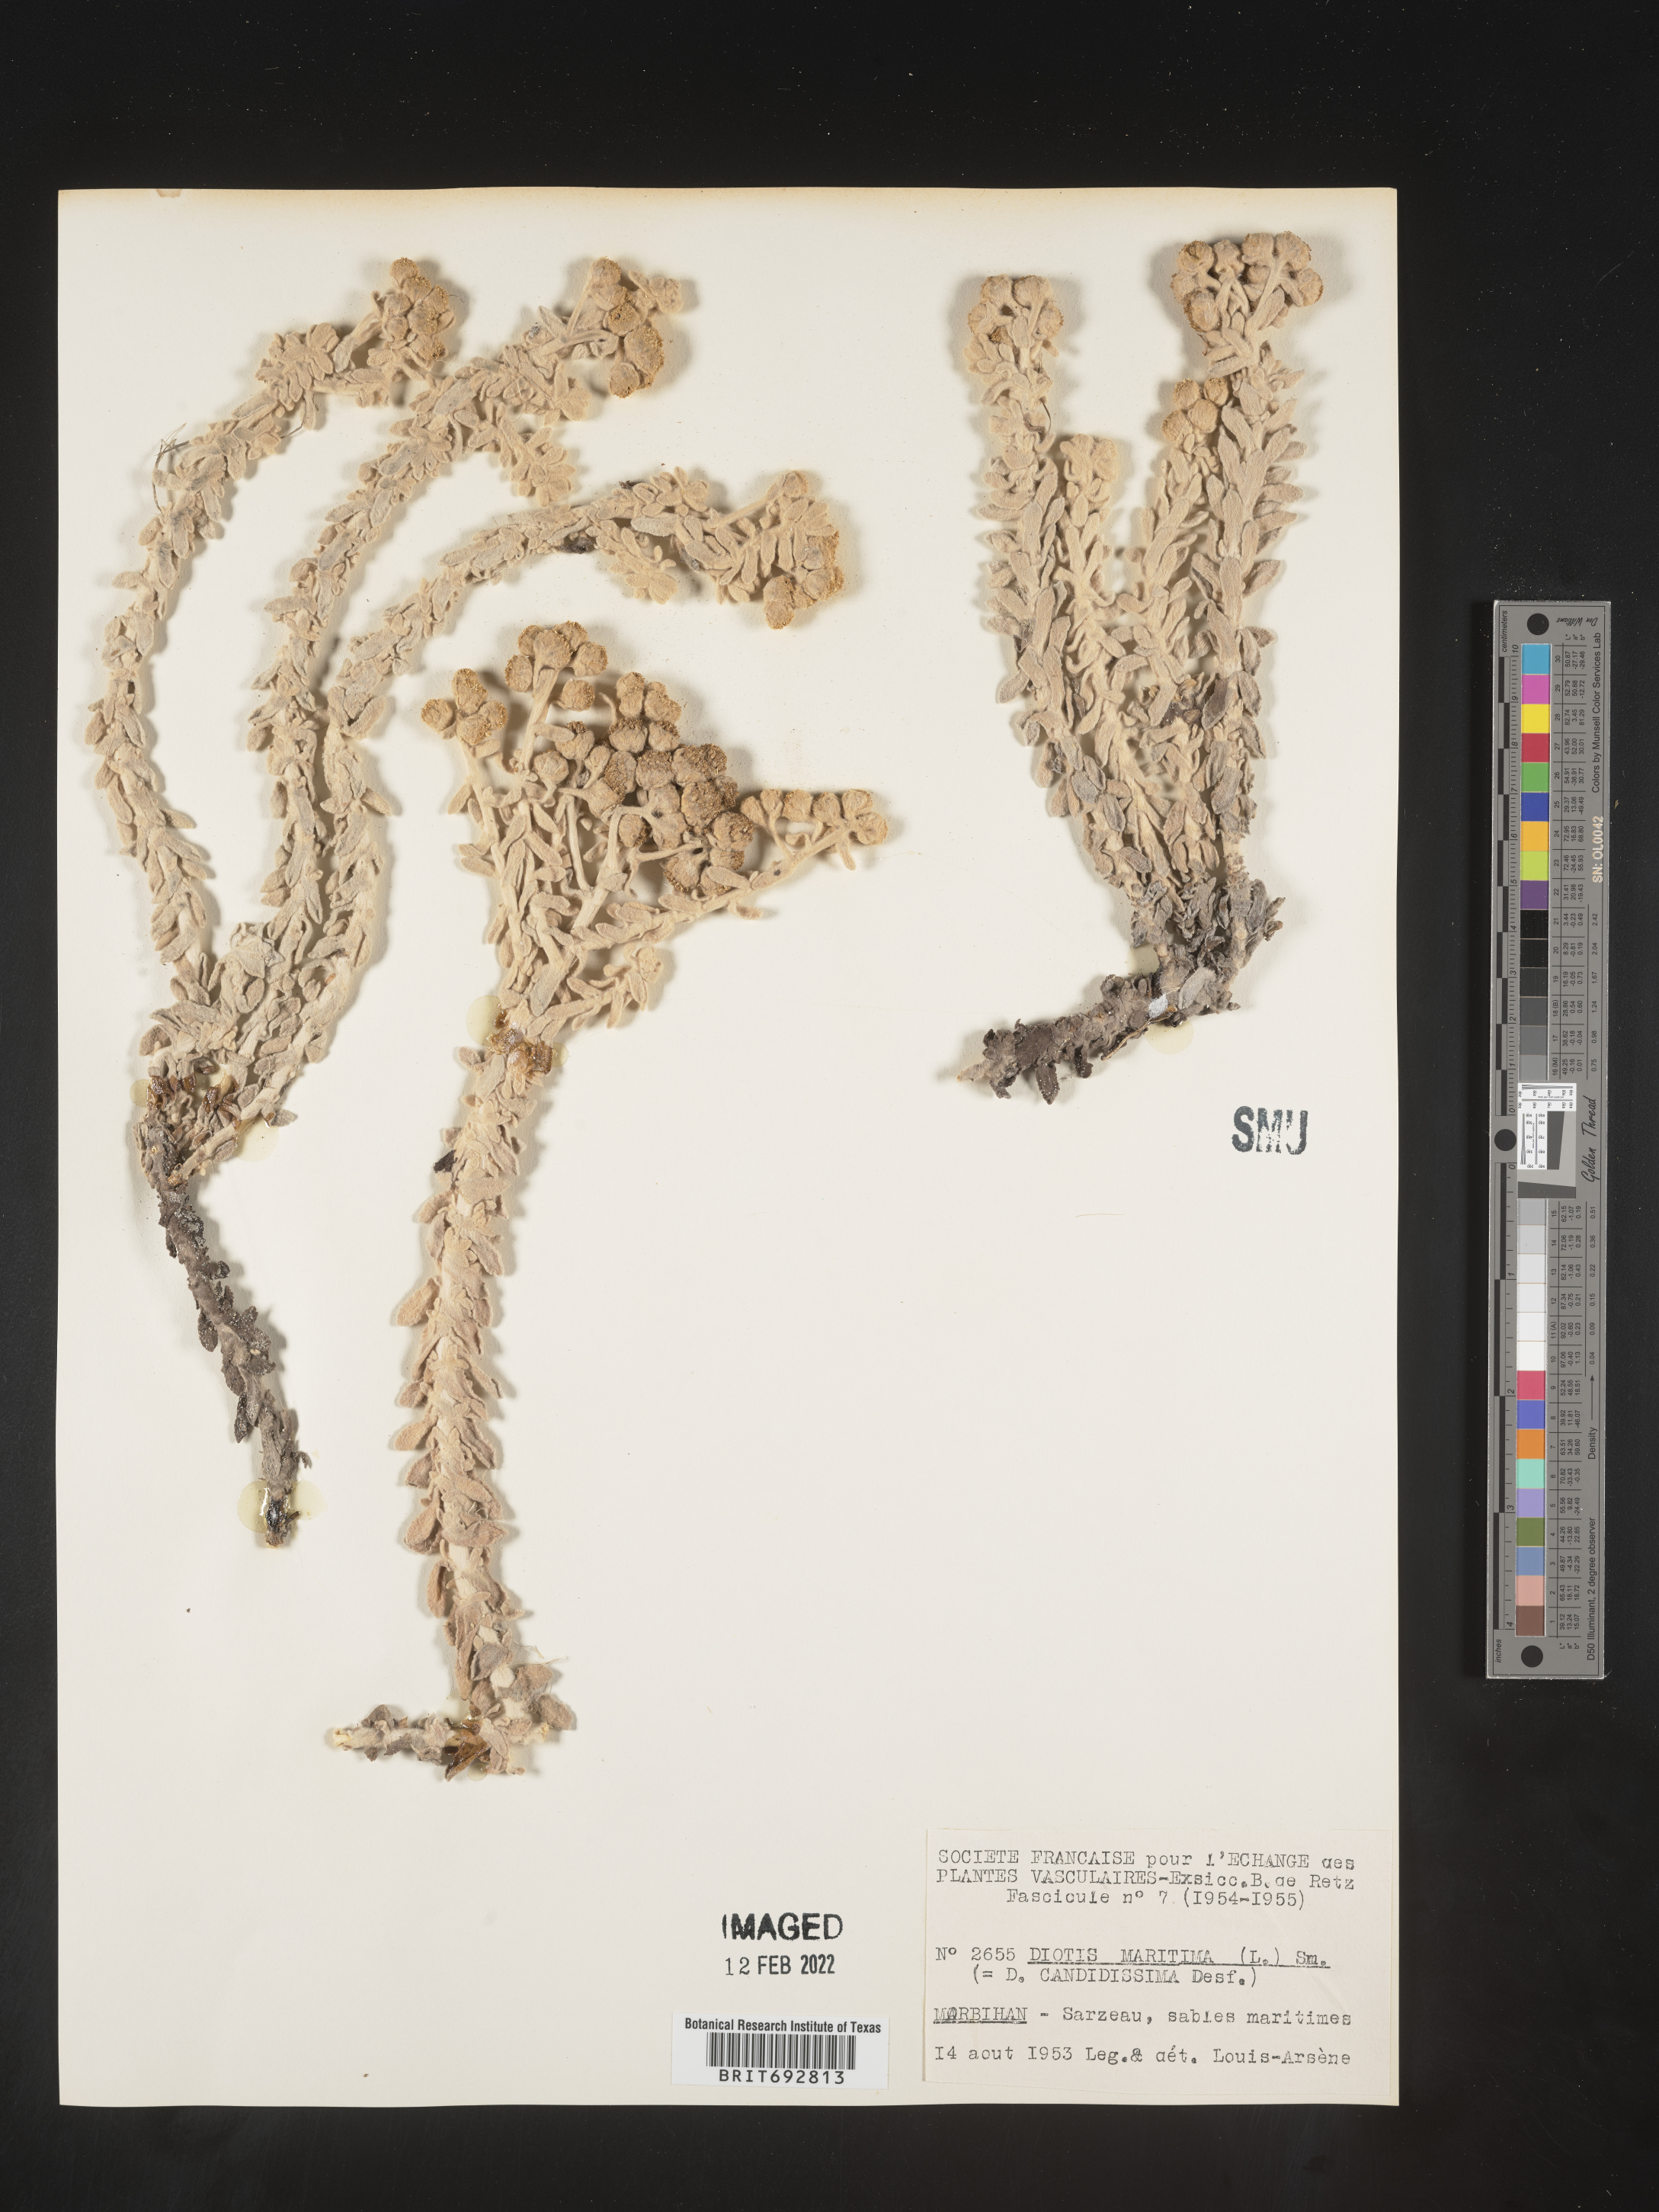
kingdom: Plantae
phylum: Tracheophyta
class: Magnoliopsida
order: Asterales
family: Asteraceae
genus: Achillea
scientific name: Achillea
